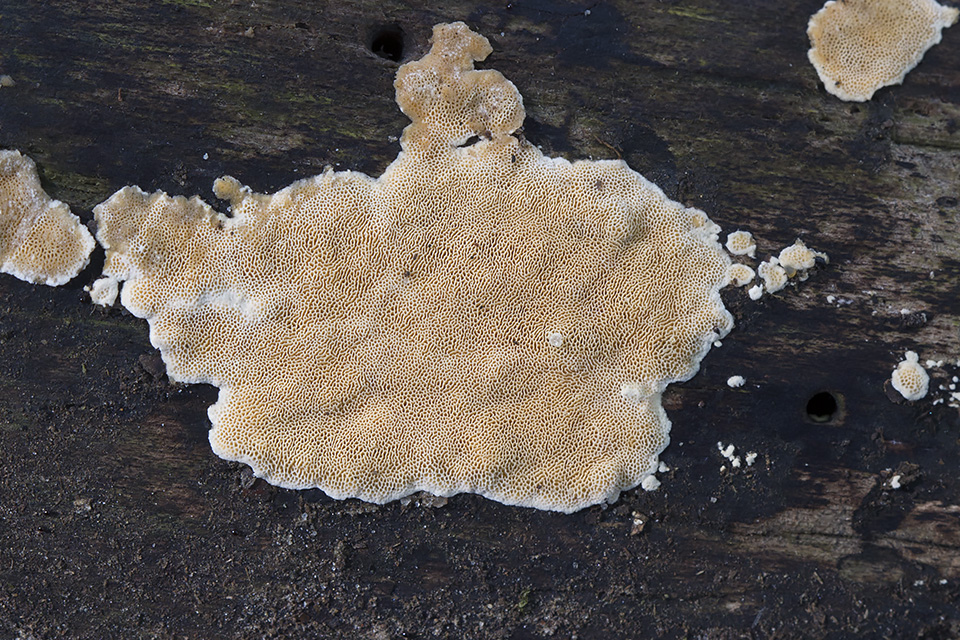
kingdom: Fungi
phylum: Basidiomycota
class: Agaricomycetes
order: Polyporales
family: Steccherinaceae
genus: Steccherinum
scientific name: Steccherinum lacerum
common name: trådet skønporesvamp
